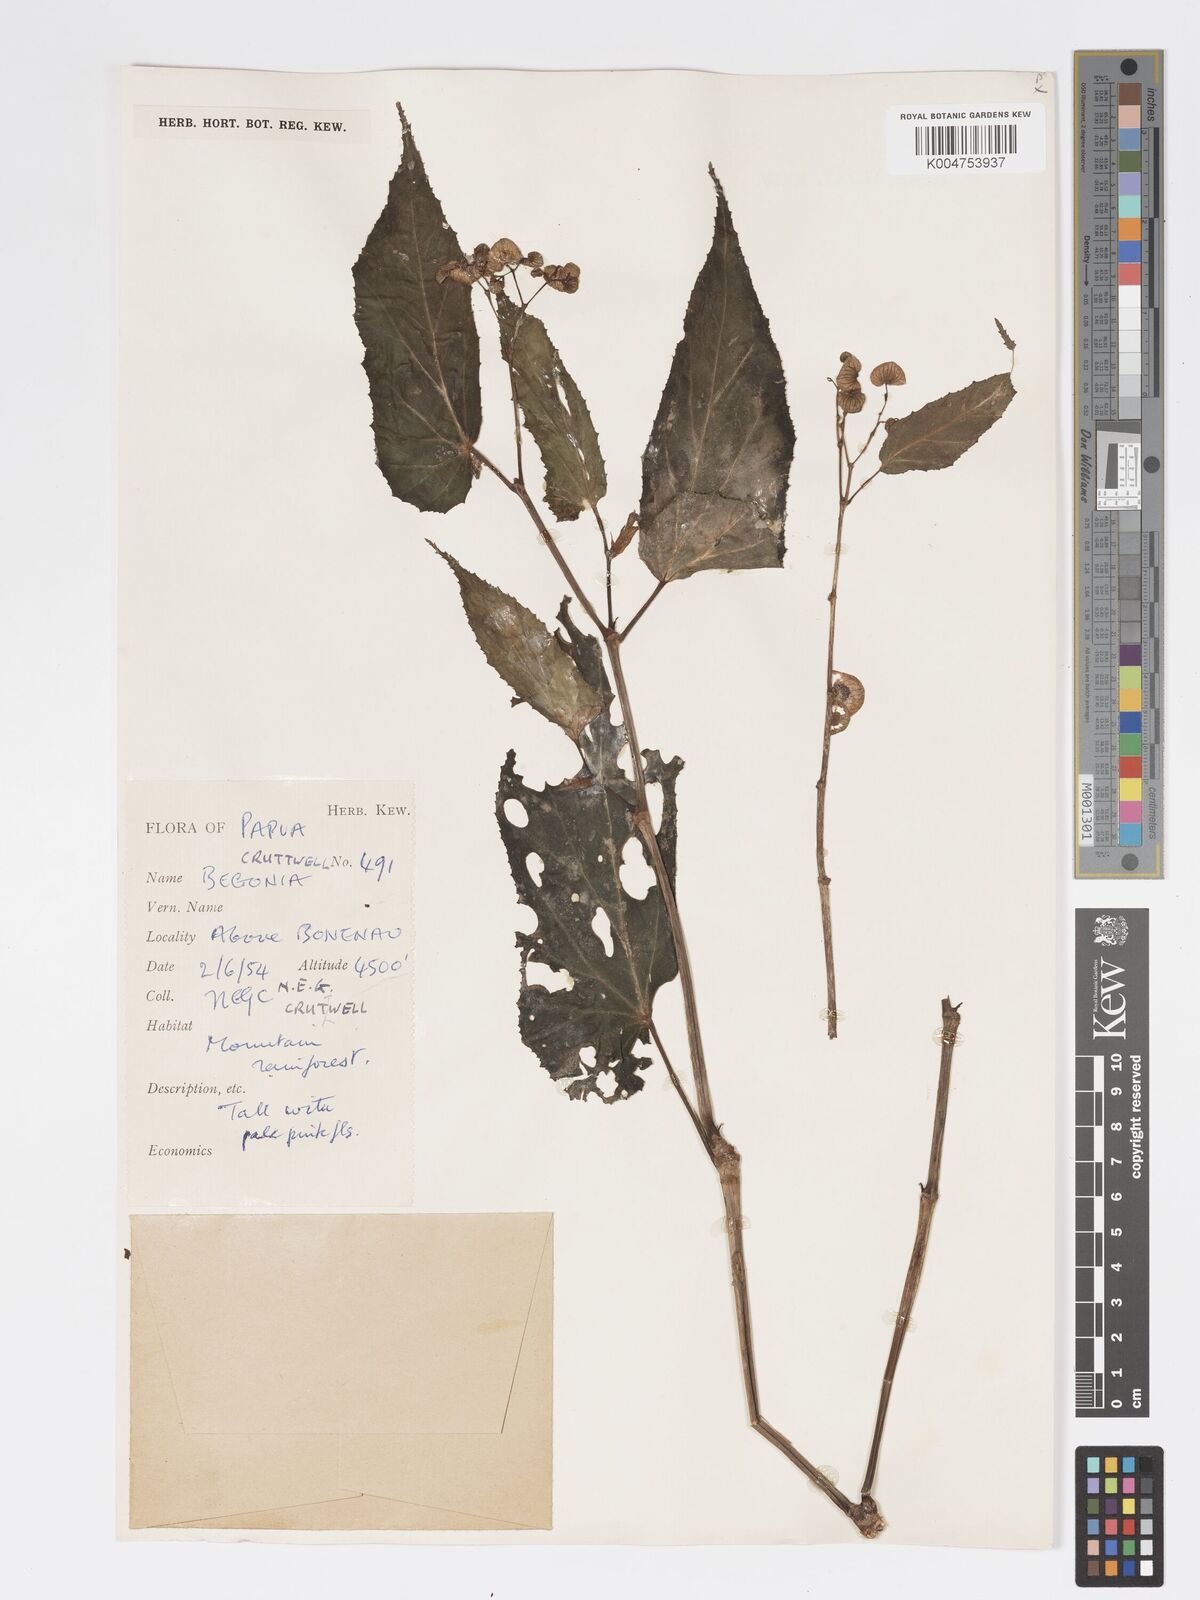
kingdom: Plantae
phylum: Tracheophyta
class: Magnoliopsida
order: Cucurbitales
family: Begoniaceae
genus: Begonia
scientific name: Begonia papuana
